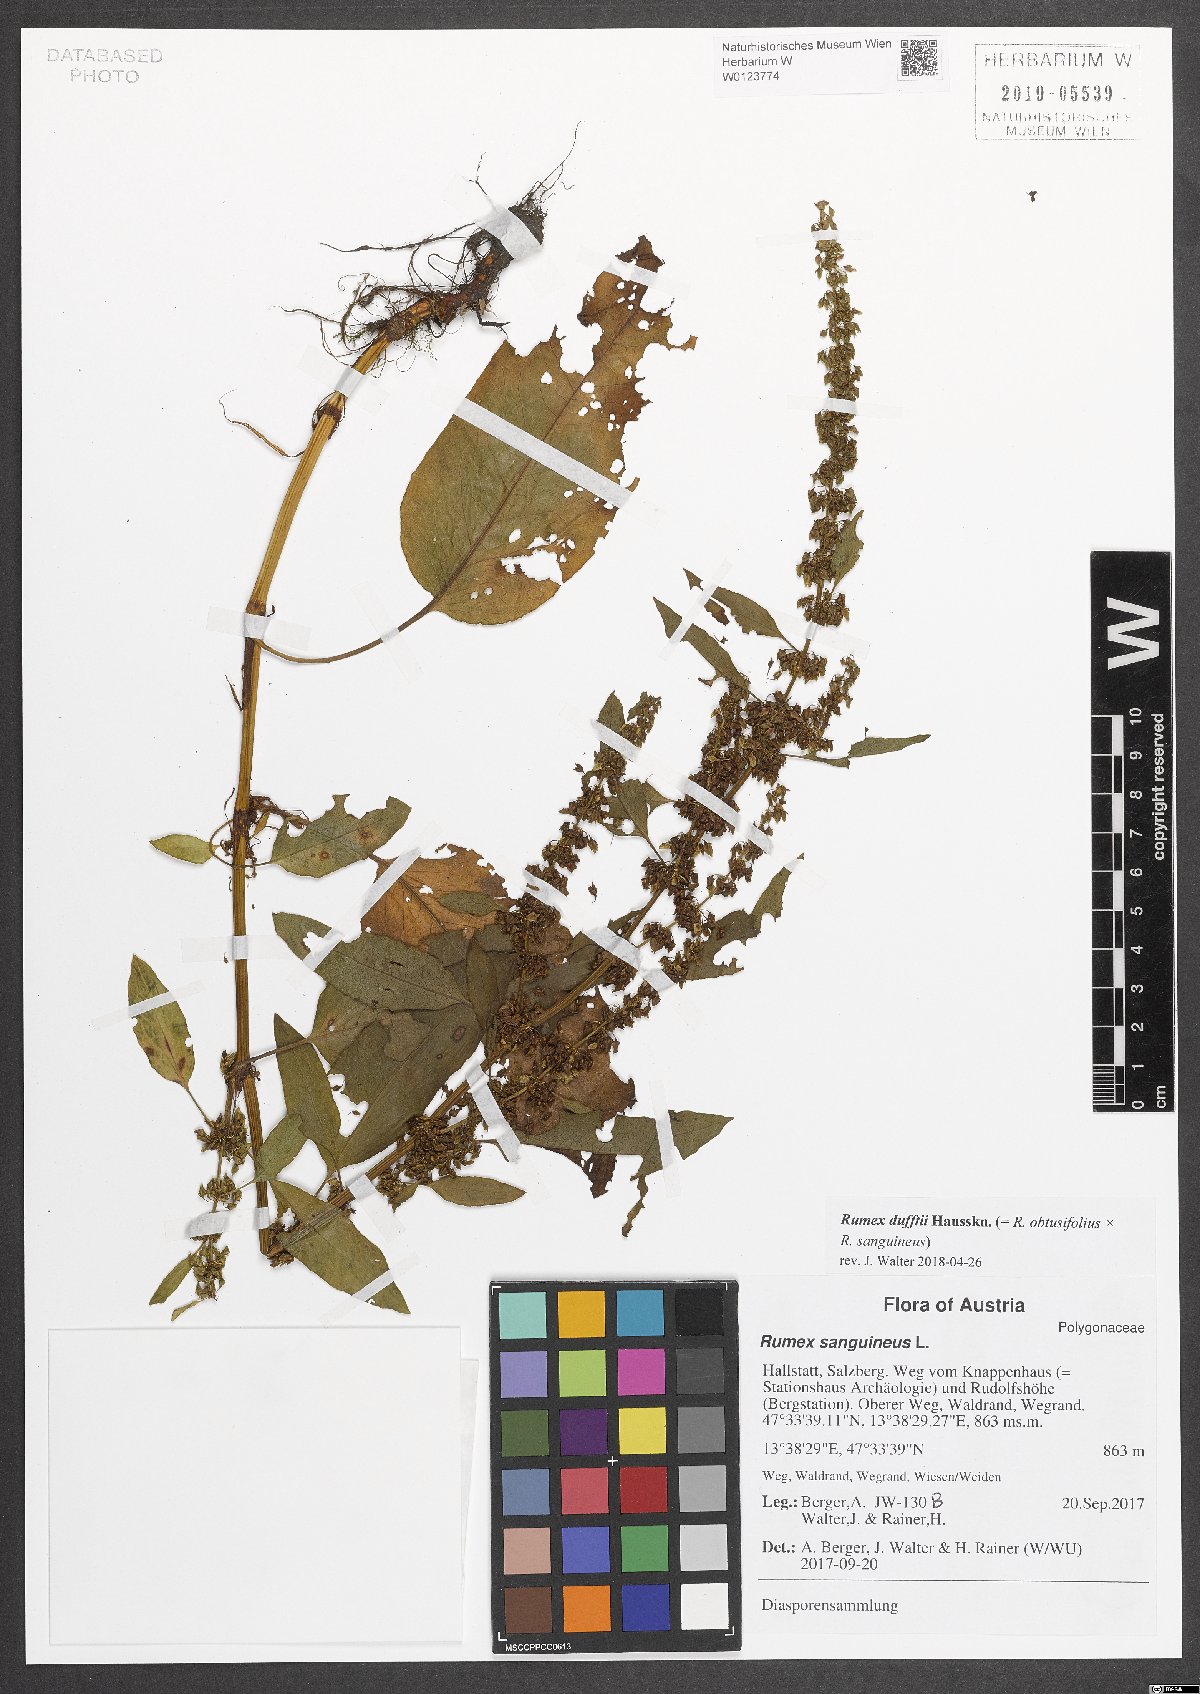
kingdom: Plantae
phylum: Tracheophyta
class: Magnoliopsida
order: Caryophyllales
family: Polygonaceae
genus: Rumex
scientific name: Rumex dufftii
